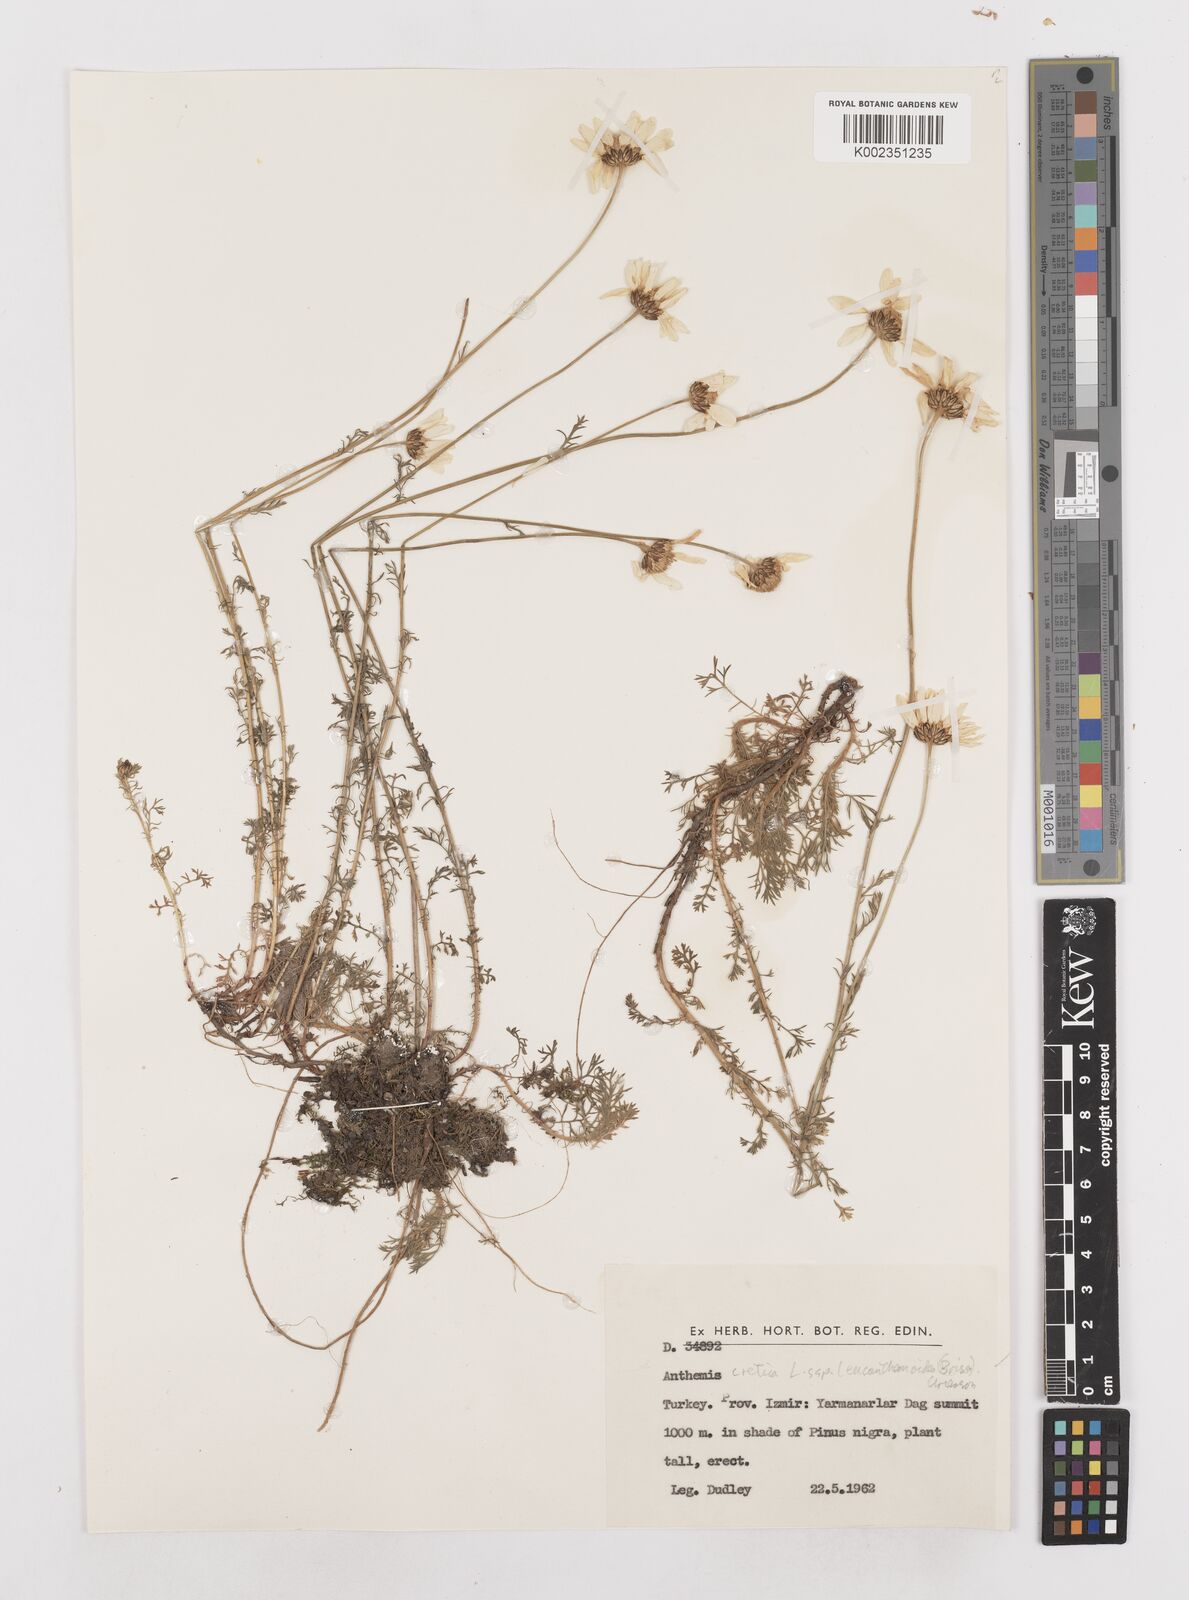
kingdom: Plantae
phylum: Tracheophyta
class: Magnoliopsida
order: Asterales
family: Asteraceae
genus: Anthemis
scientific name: Anthemis cretica
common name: Mountain dog-daisy
